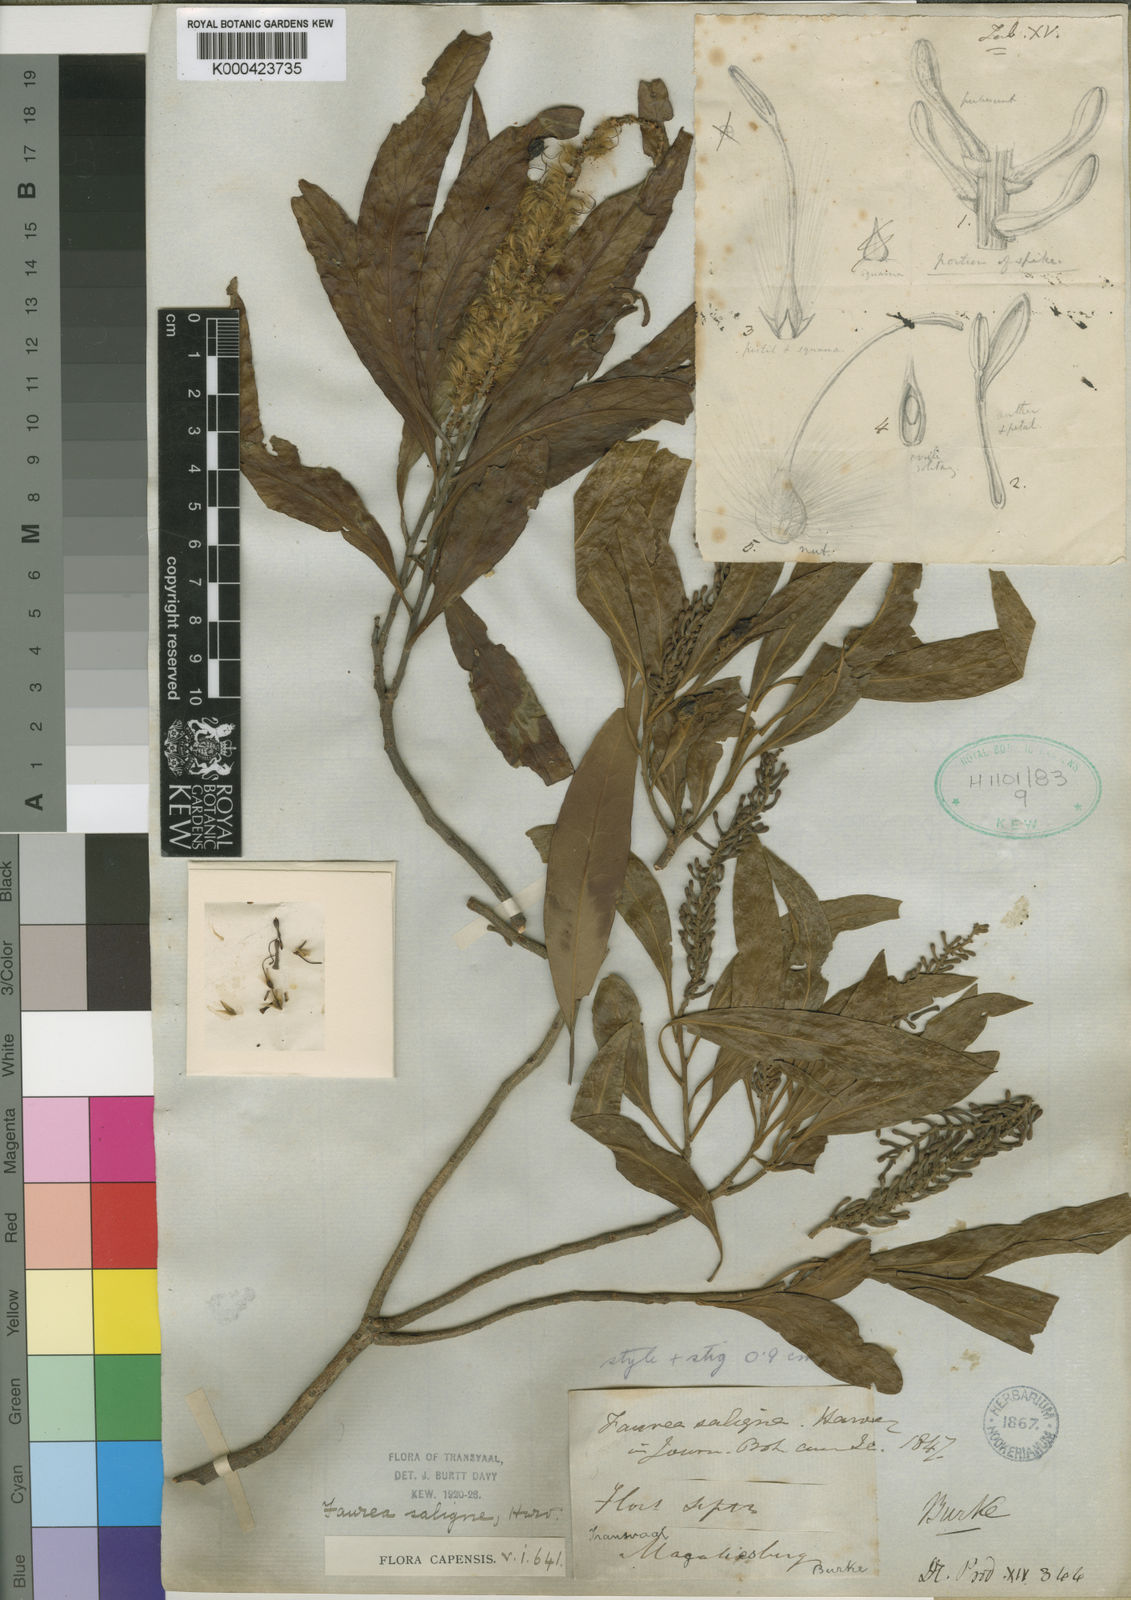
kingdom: Plantae
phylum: Tracheophyta
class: Magnoliopsida
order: Proteales
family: Proteaceae
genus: Faurea
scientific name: Faurea saligna
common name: African bean
